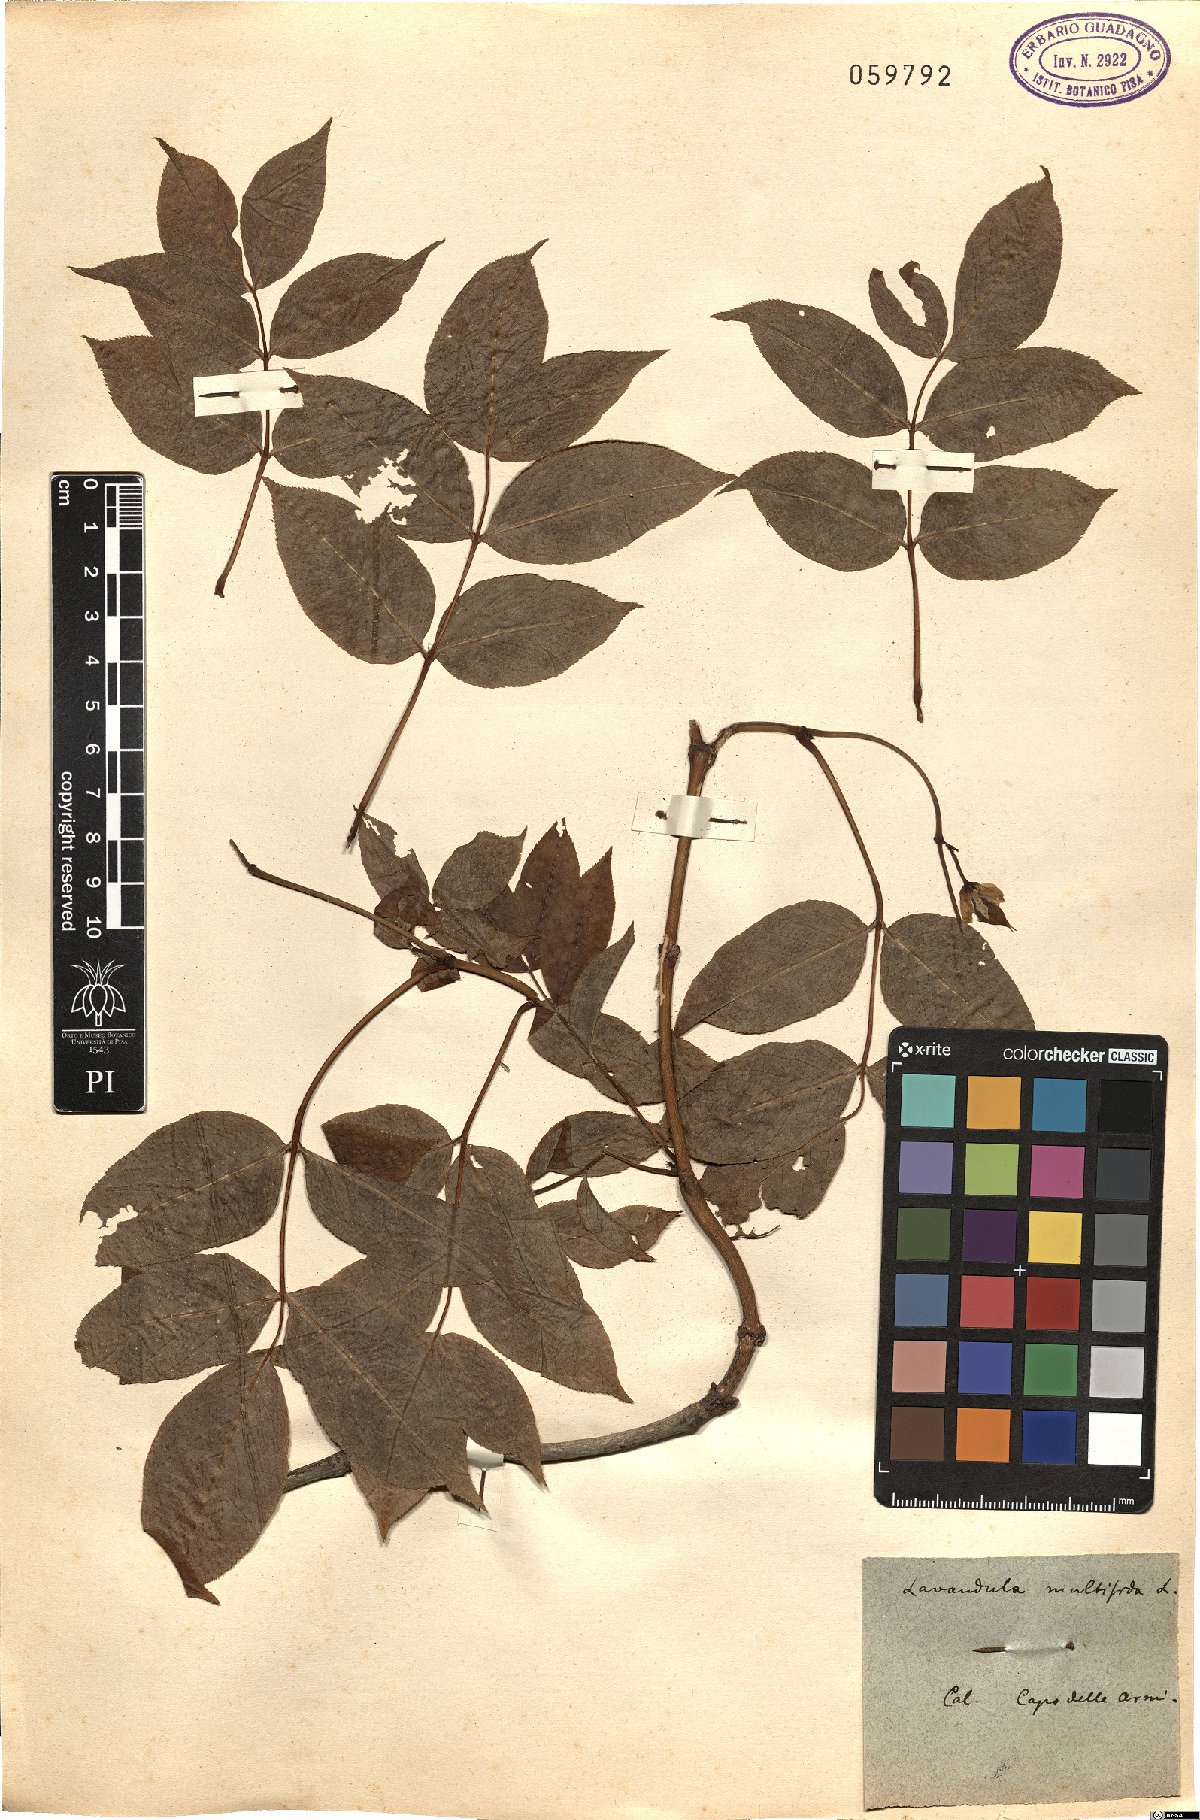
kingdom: Plantae
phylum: Tracheophyta
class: Magnoliopsida
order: Lamiales
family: Lamiaceae
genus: Lavandula
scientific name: Lavandula multifida
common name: Fern-leaf lavender
